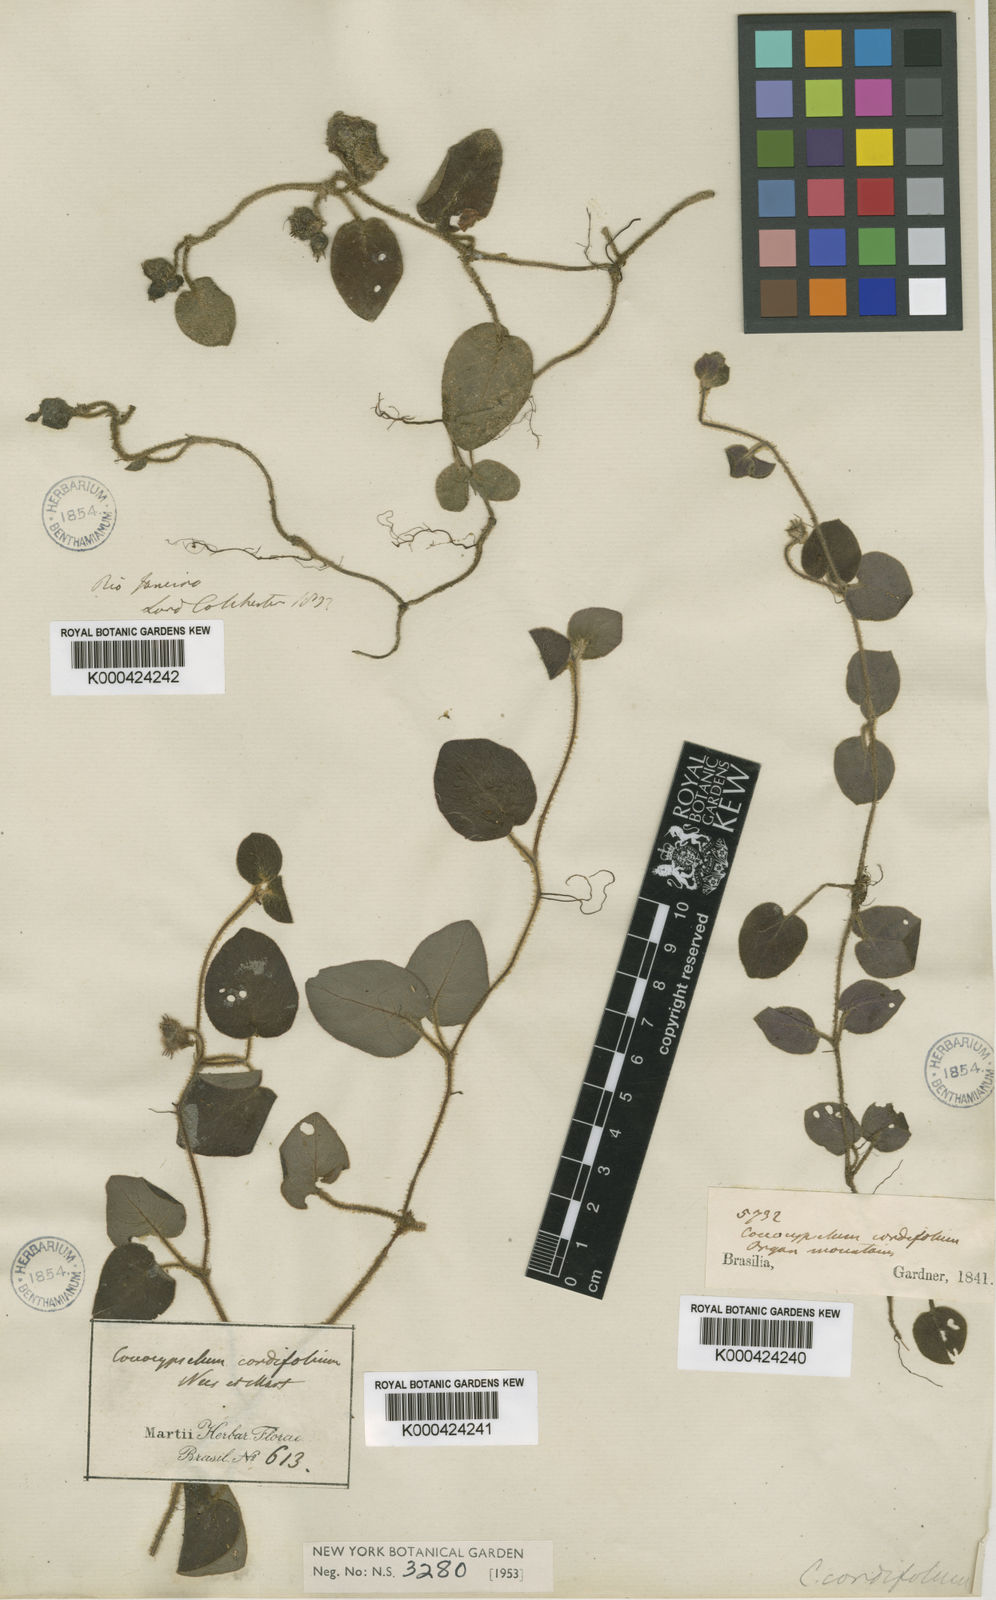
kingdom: Plantae
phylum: Tracheophyta
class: Magnoliopsida
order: Gentianales
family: Rubiaceae
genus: Coccocypselum
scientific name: Coccocypselum cordifolium
